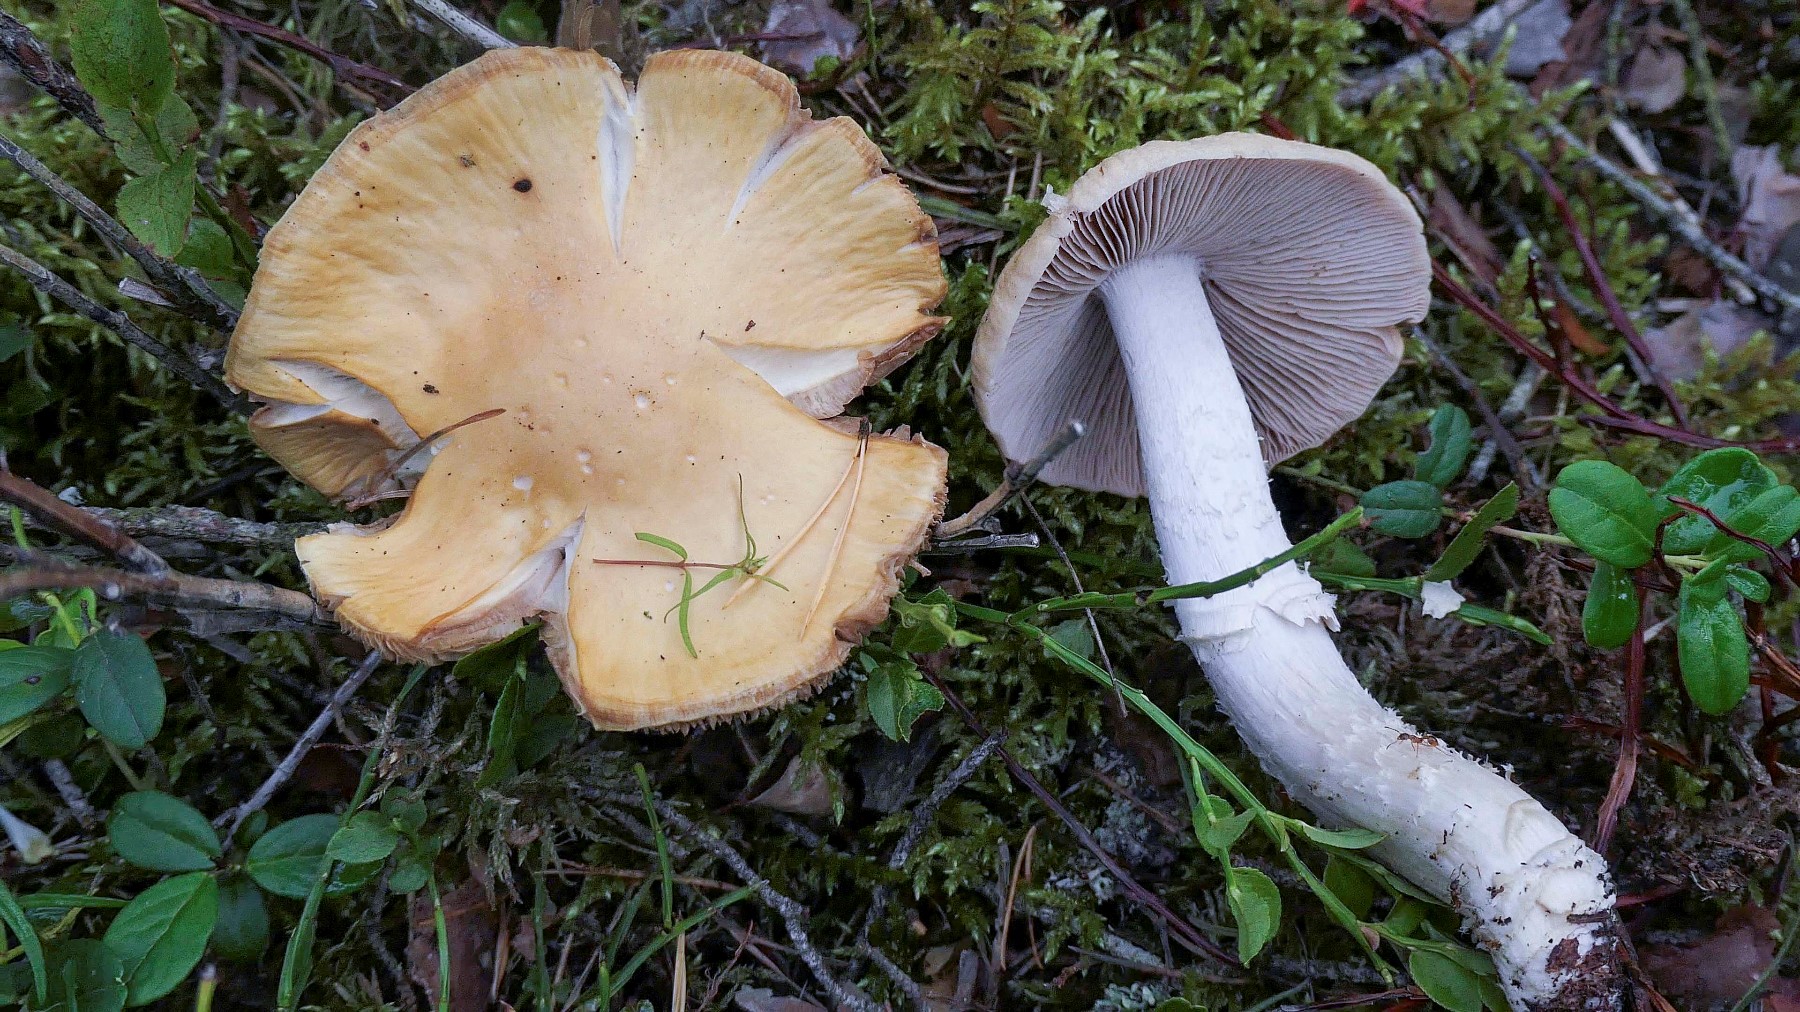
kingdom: Fungi
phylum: Basidiomycota
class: Agaricomycetes
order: Agaricales
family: Cortinariaceae
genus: Cortinarius
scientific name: Cortinarius caperatus
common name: klidhat
